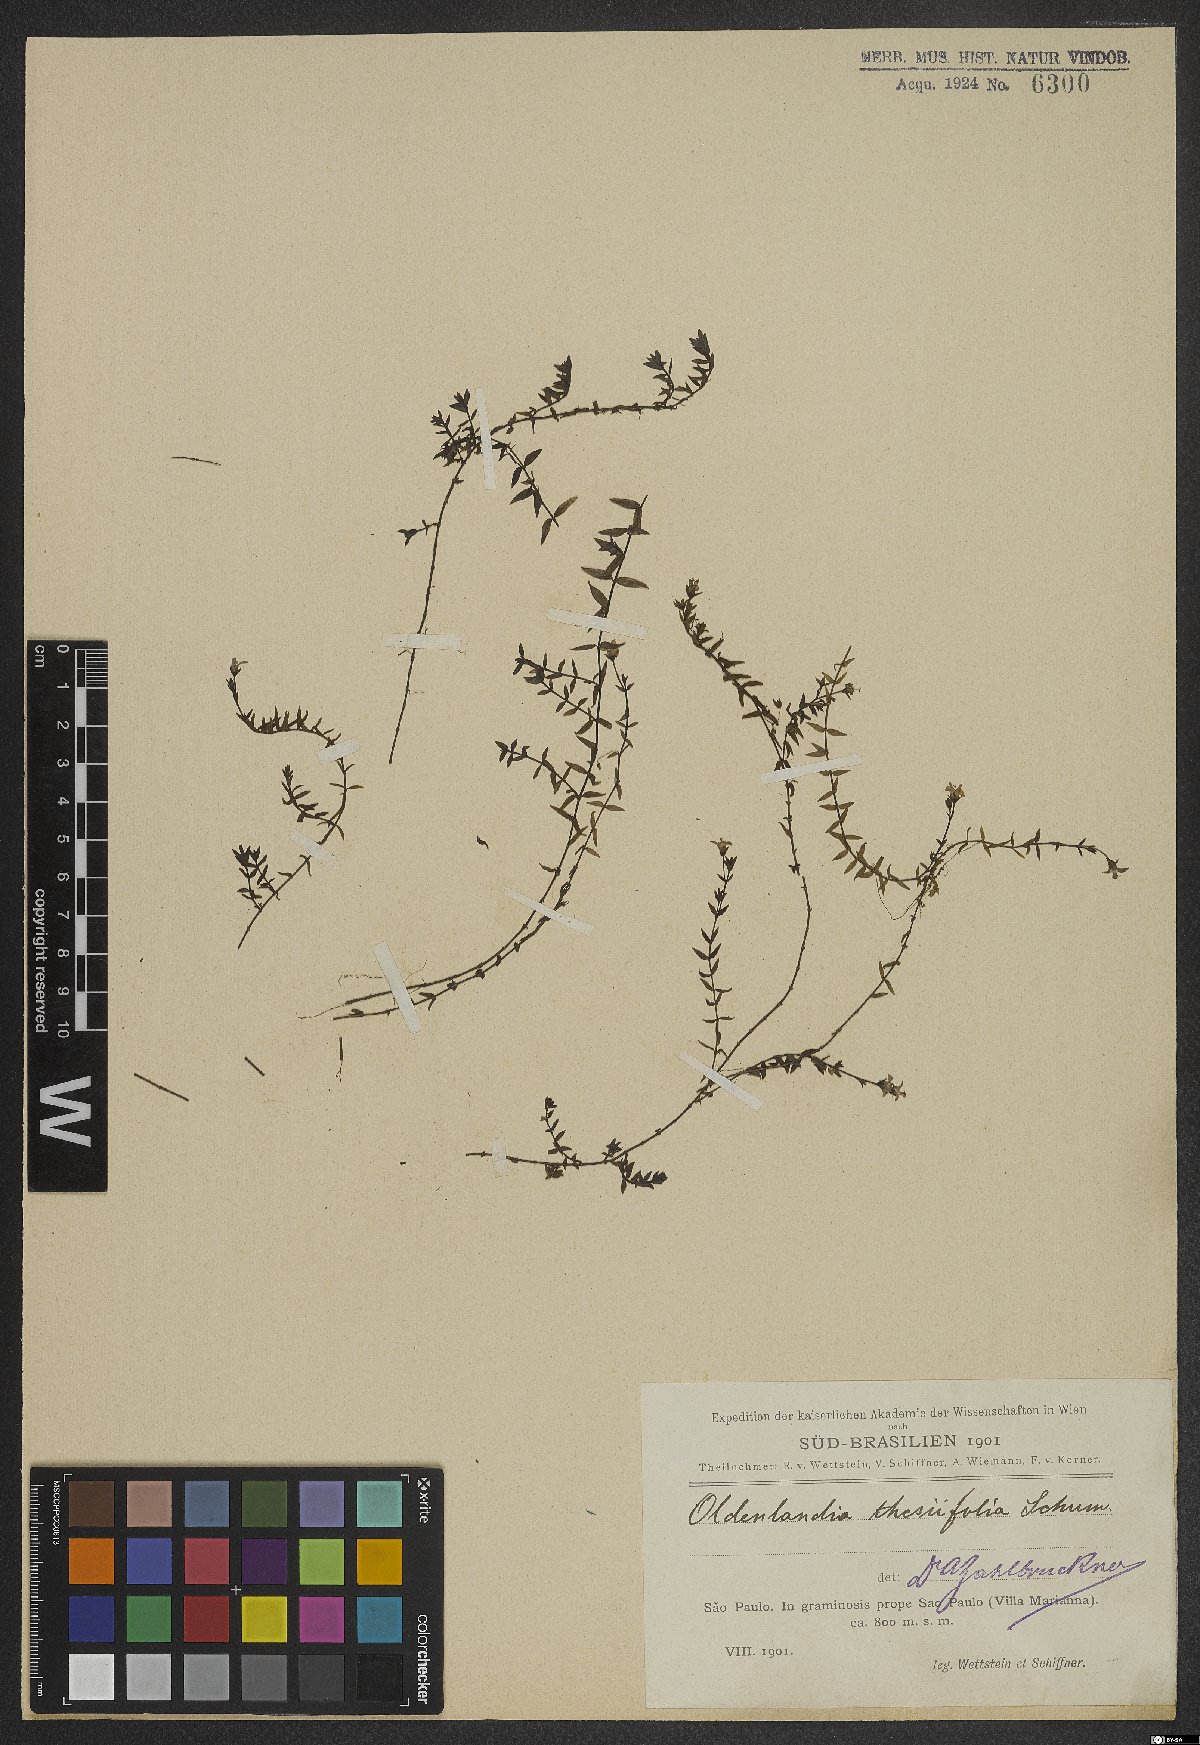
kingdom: Plantae
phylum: Tracheophyta
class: Magnoliopsida
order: Gentianales
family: Rubiaceae
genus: Oldenlandia
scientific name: Oldenlandia salzmannii
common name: Salzmann's mille graines
